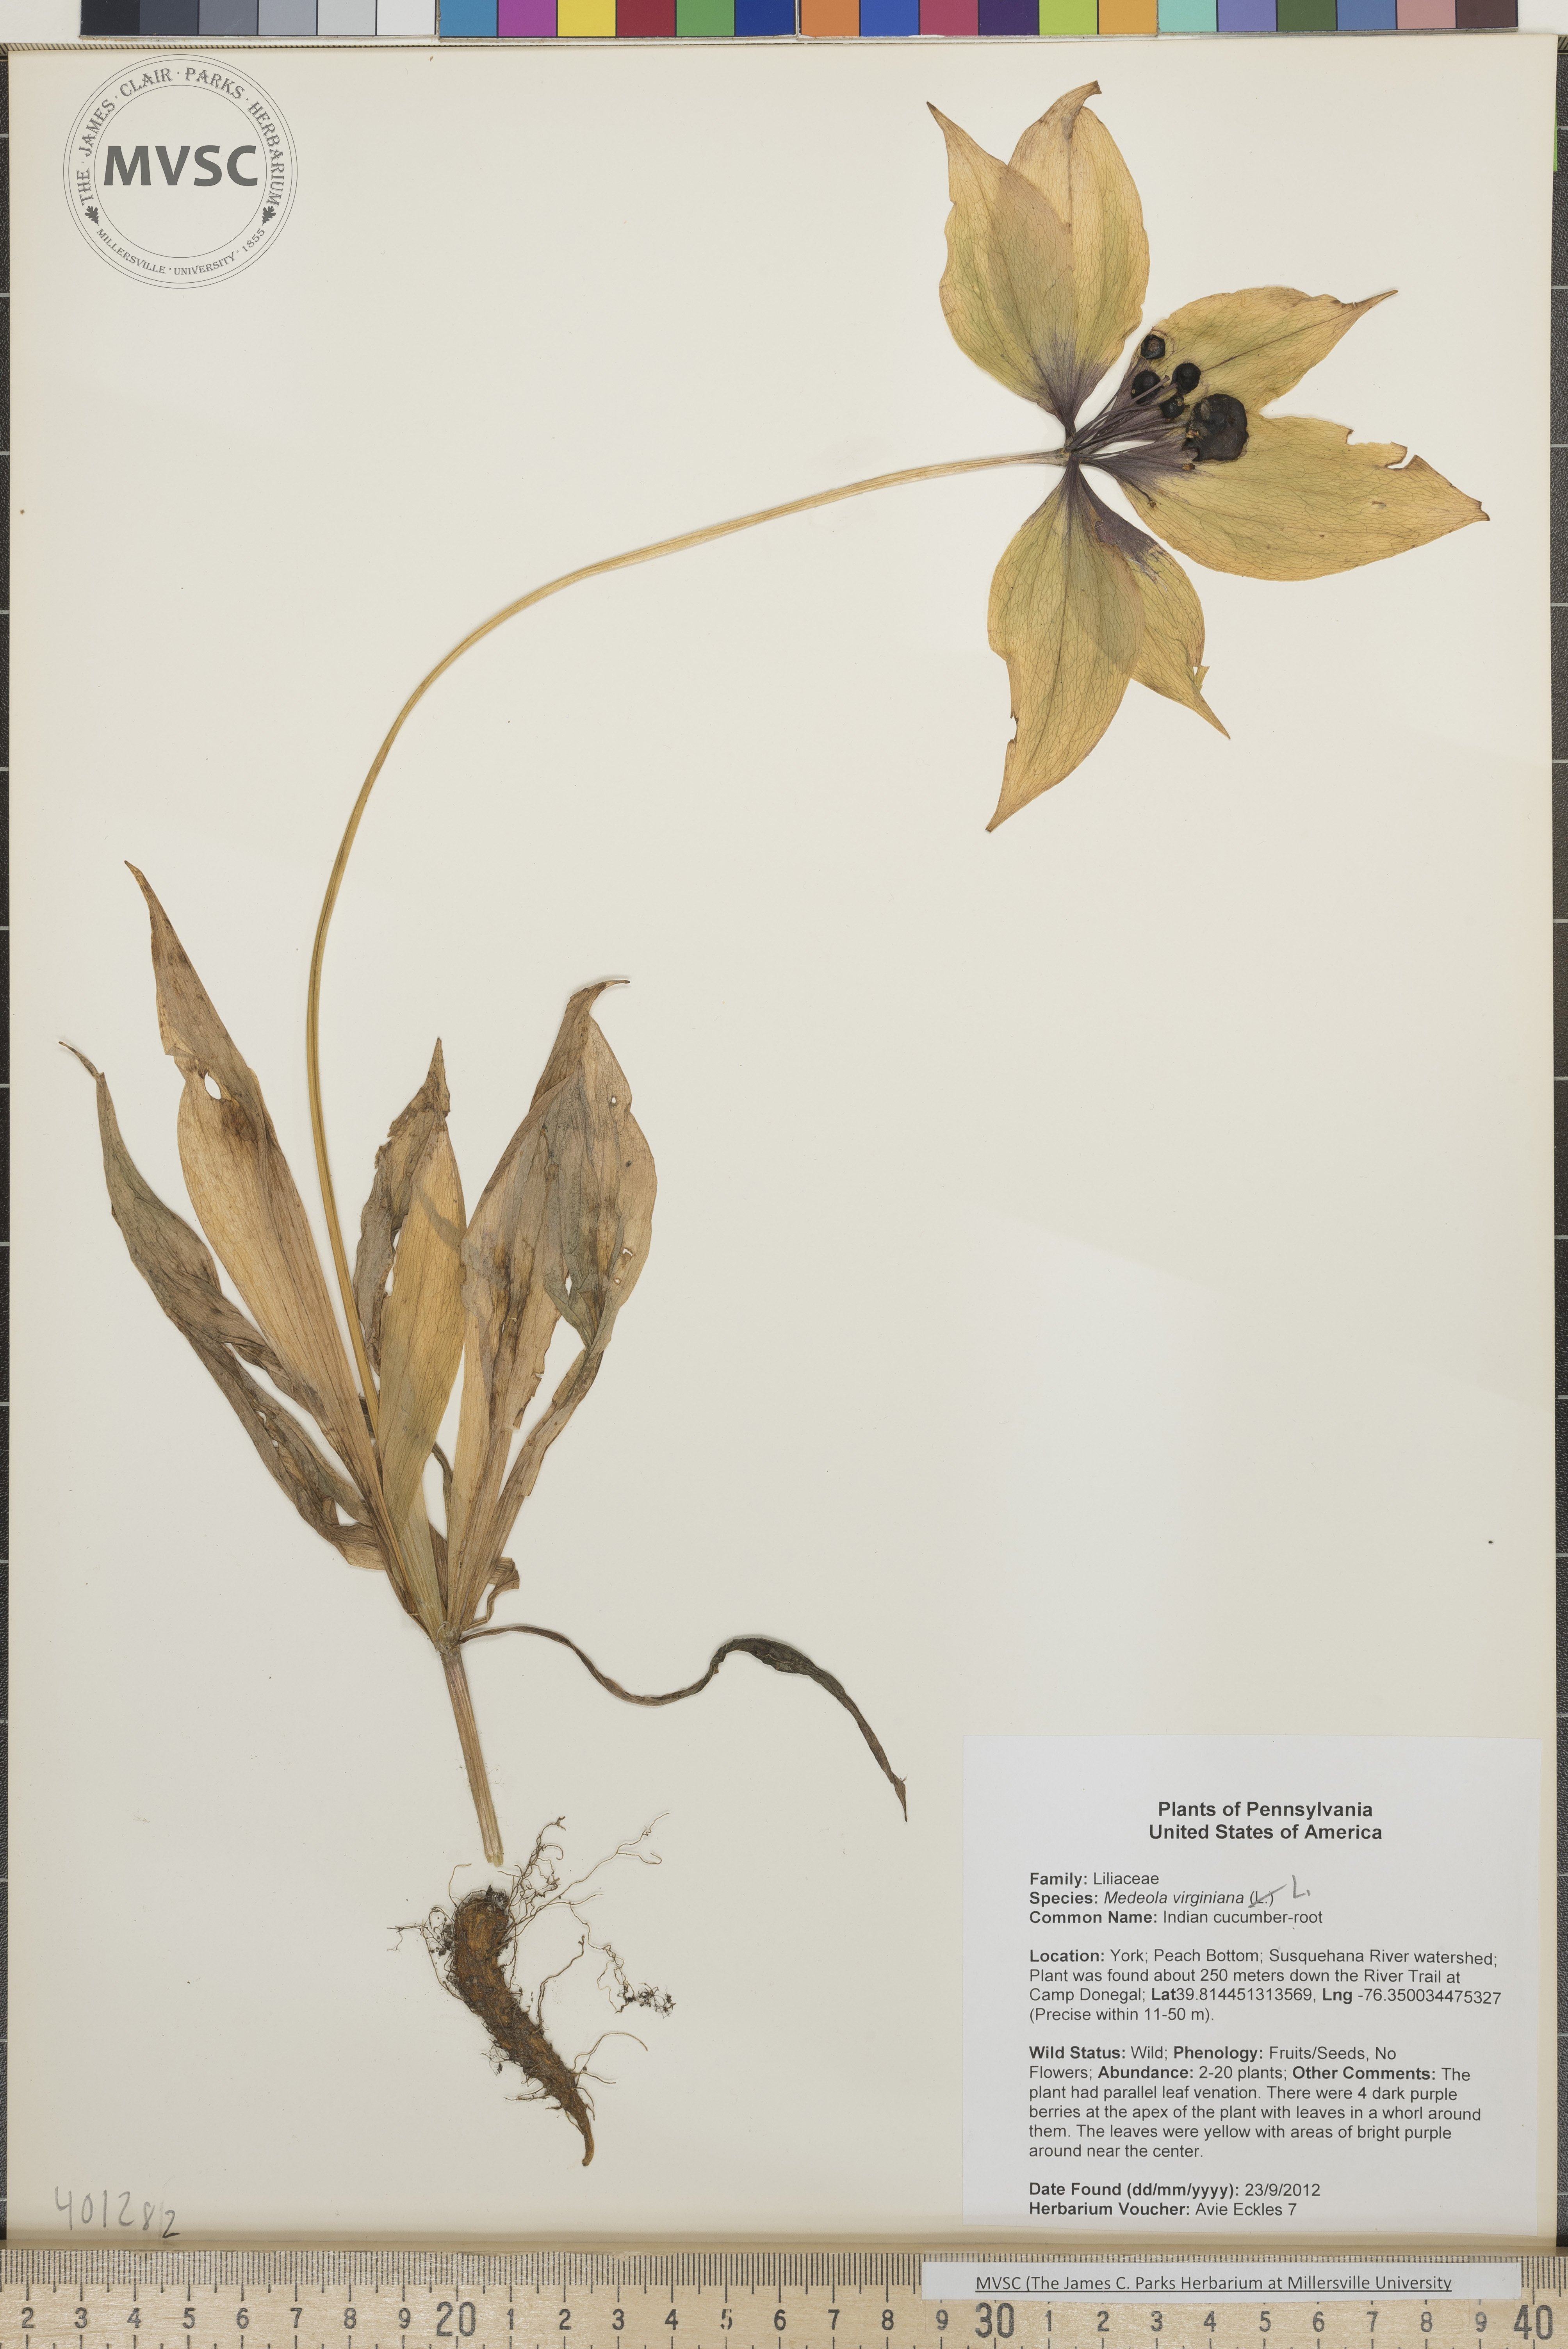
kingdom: Plantae
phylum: Tracheophyta
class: Liliopsida
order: Liliales
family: Liliaceae
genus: Medeola
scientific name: Medeola virginiana
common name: Indian cucumber-root
